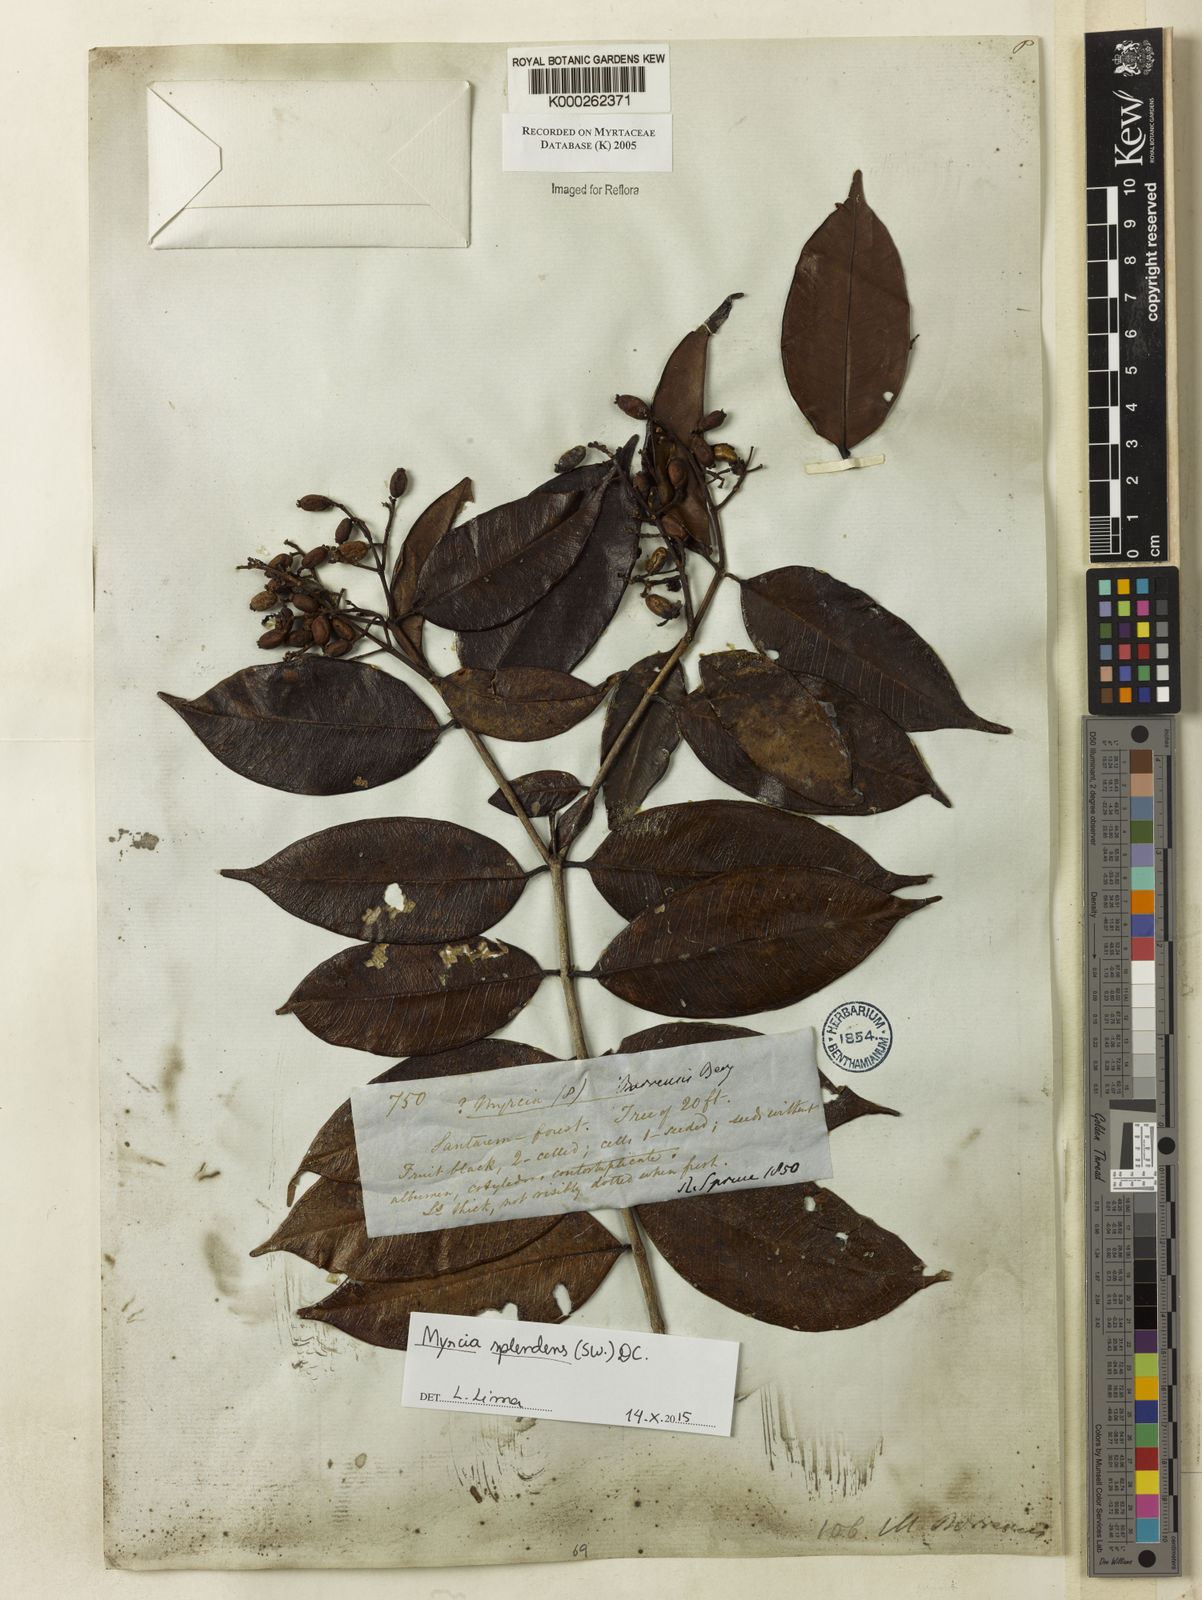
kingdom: Plantae
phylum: Tracheophyta
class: Magnoliopsida
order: Myrtales
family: Myrtaceae
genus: Myrcia
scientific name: Myrcia splendens
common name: Surinam cherry
